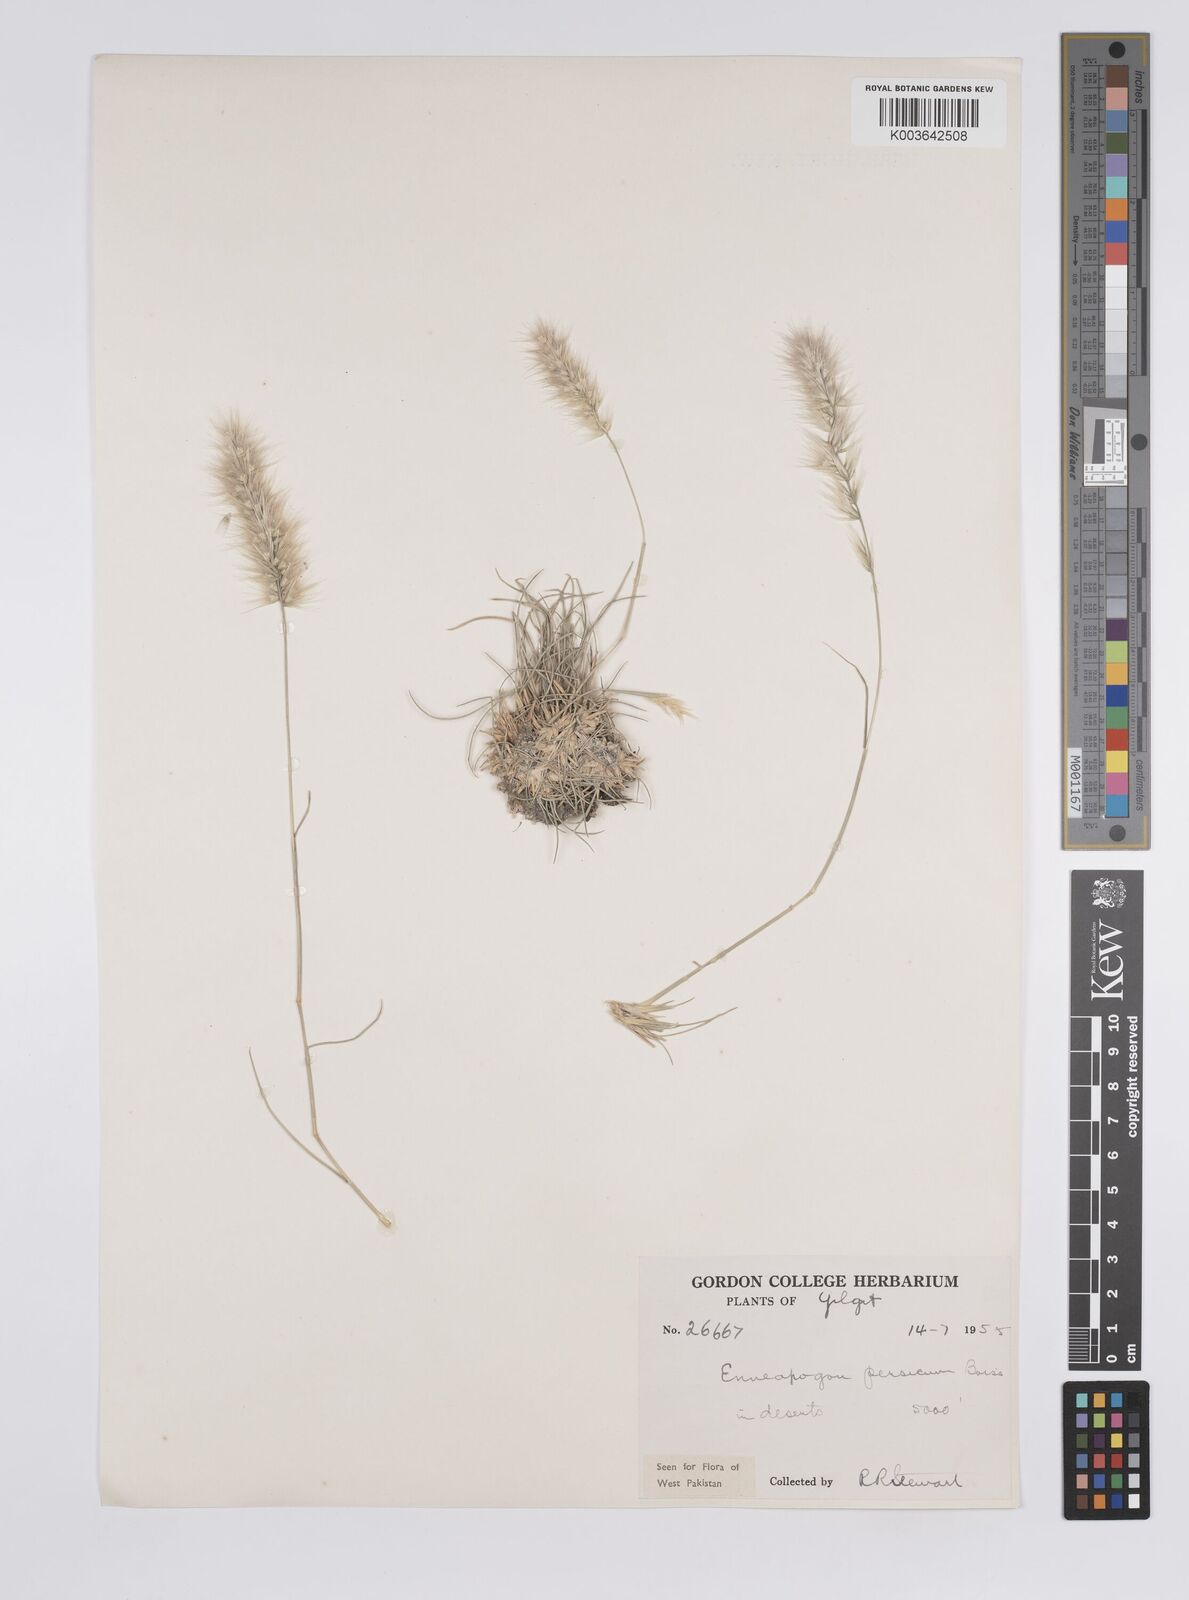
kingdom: Plantae
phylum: Tracheophyta
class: Liliopsida
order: Poales
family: Poaceae
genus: Enneapogon
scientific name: Enneapogon persicus
